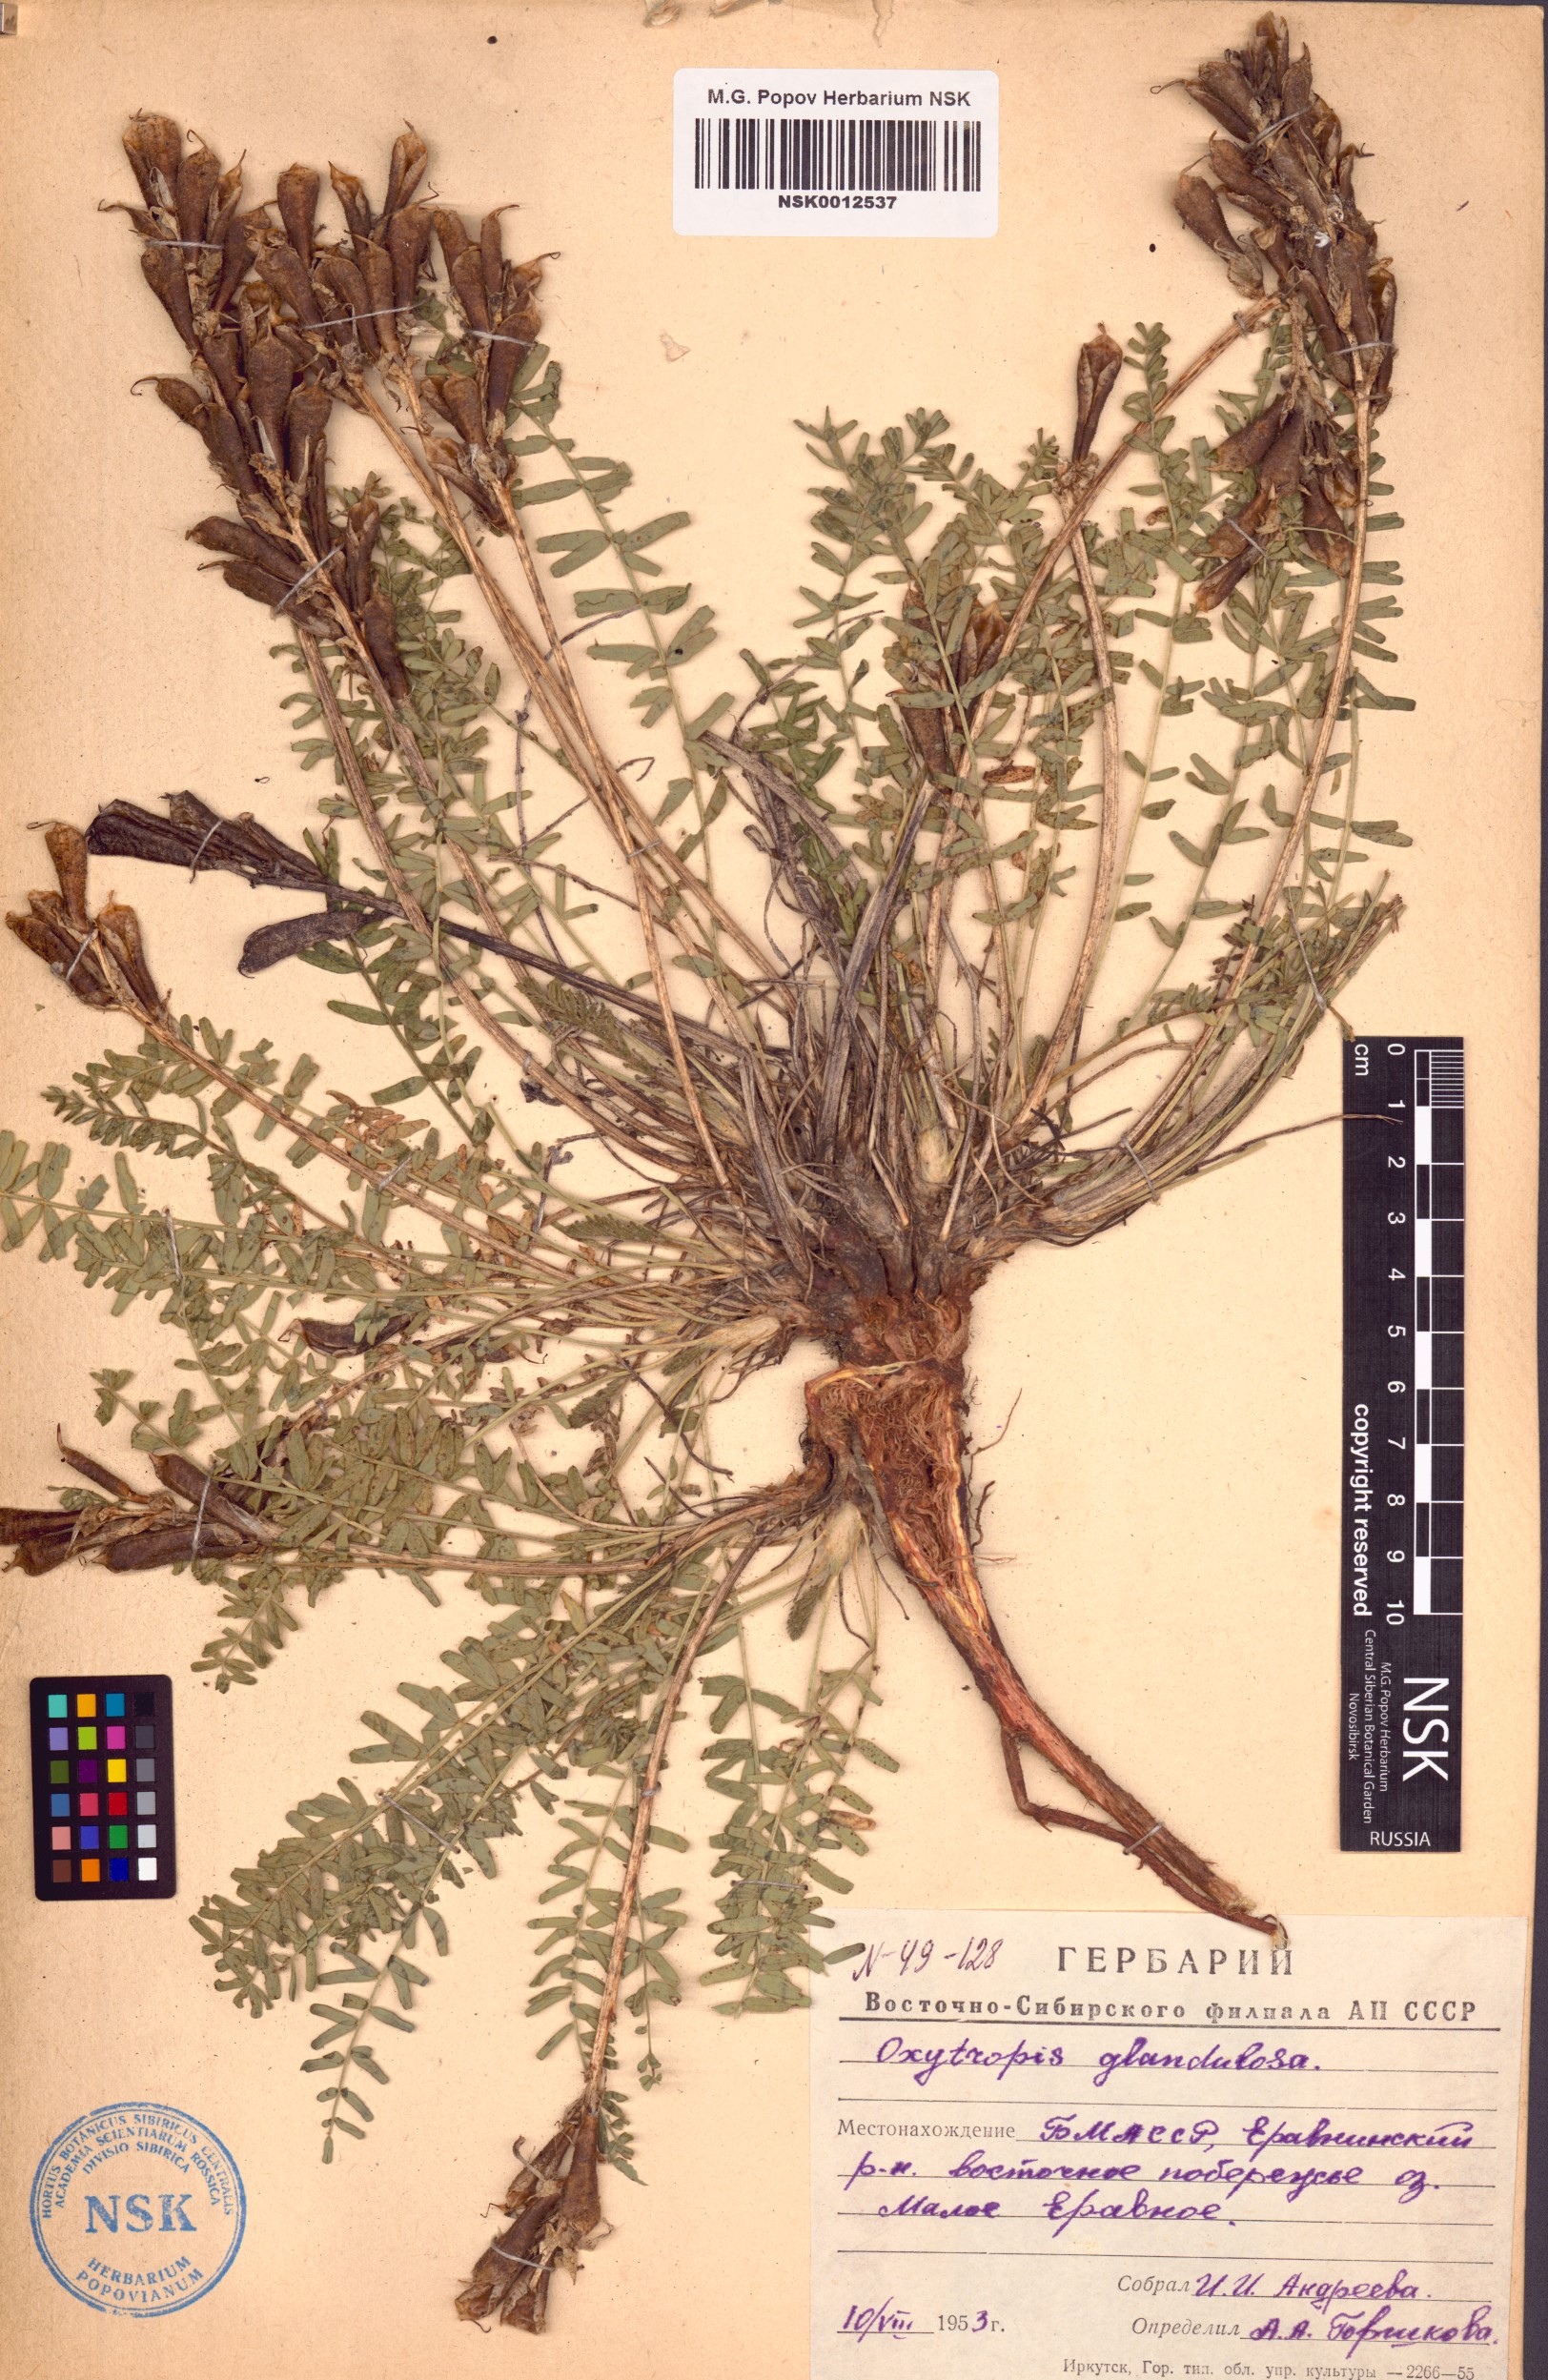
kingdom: Plantae
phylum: Tracheophyta
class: Magnoliopsida
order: Fabales
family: Fabaceae
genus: Oxytropis
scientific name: Oxytropis glandulosa
